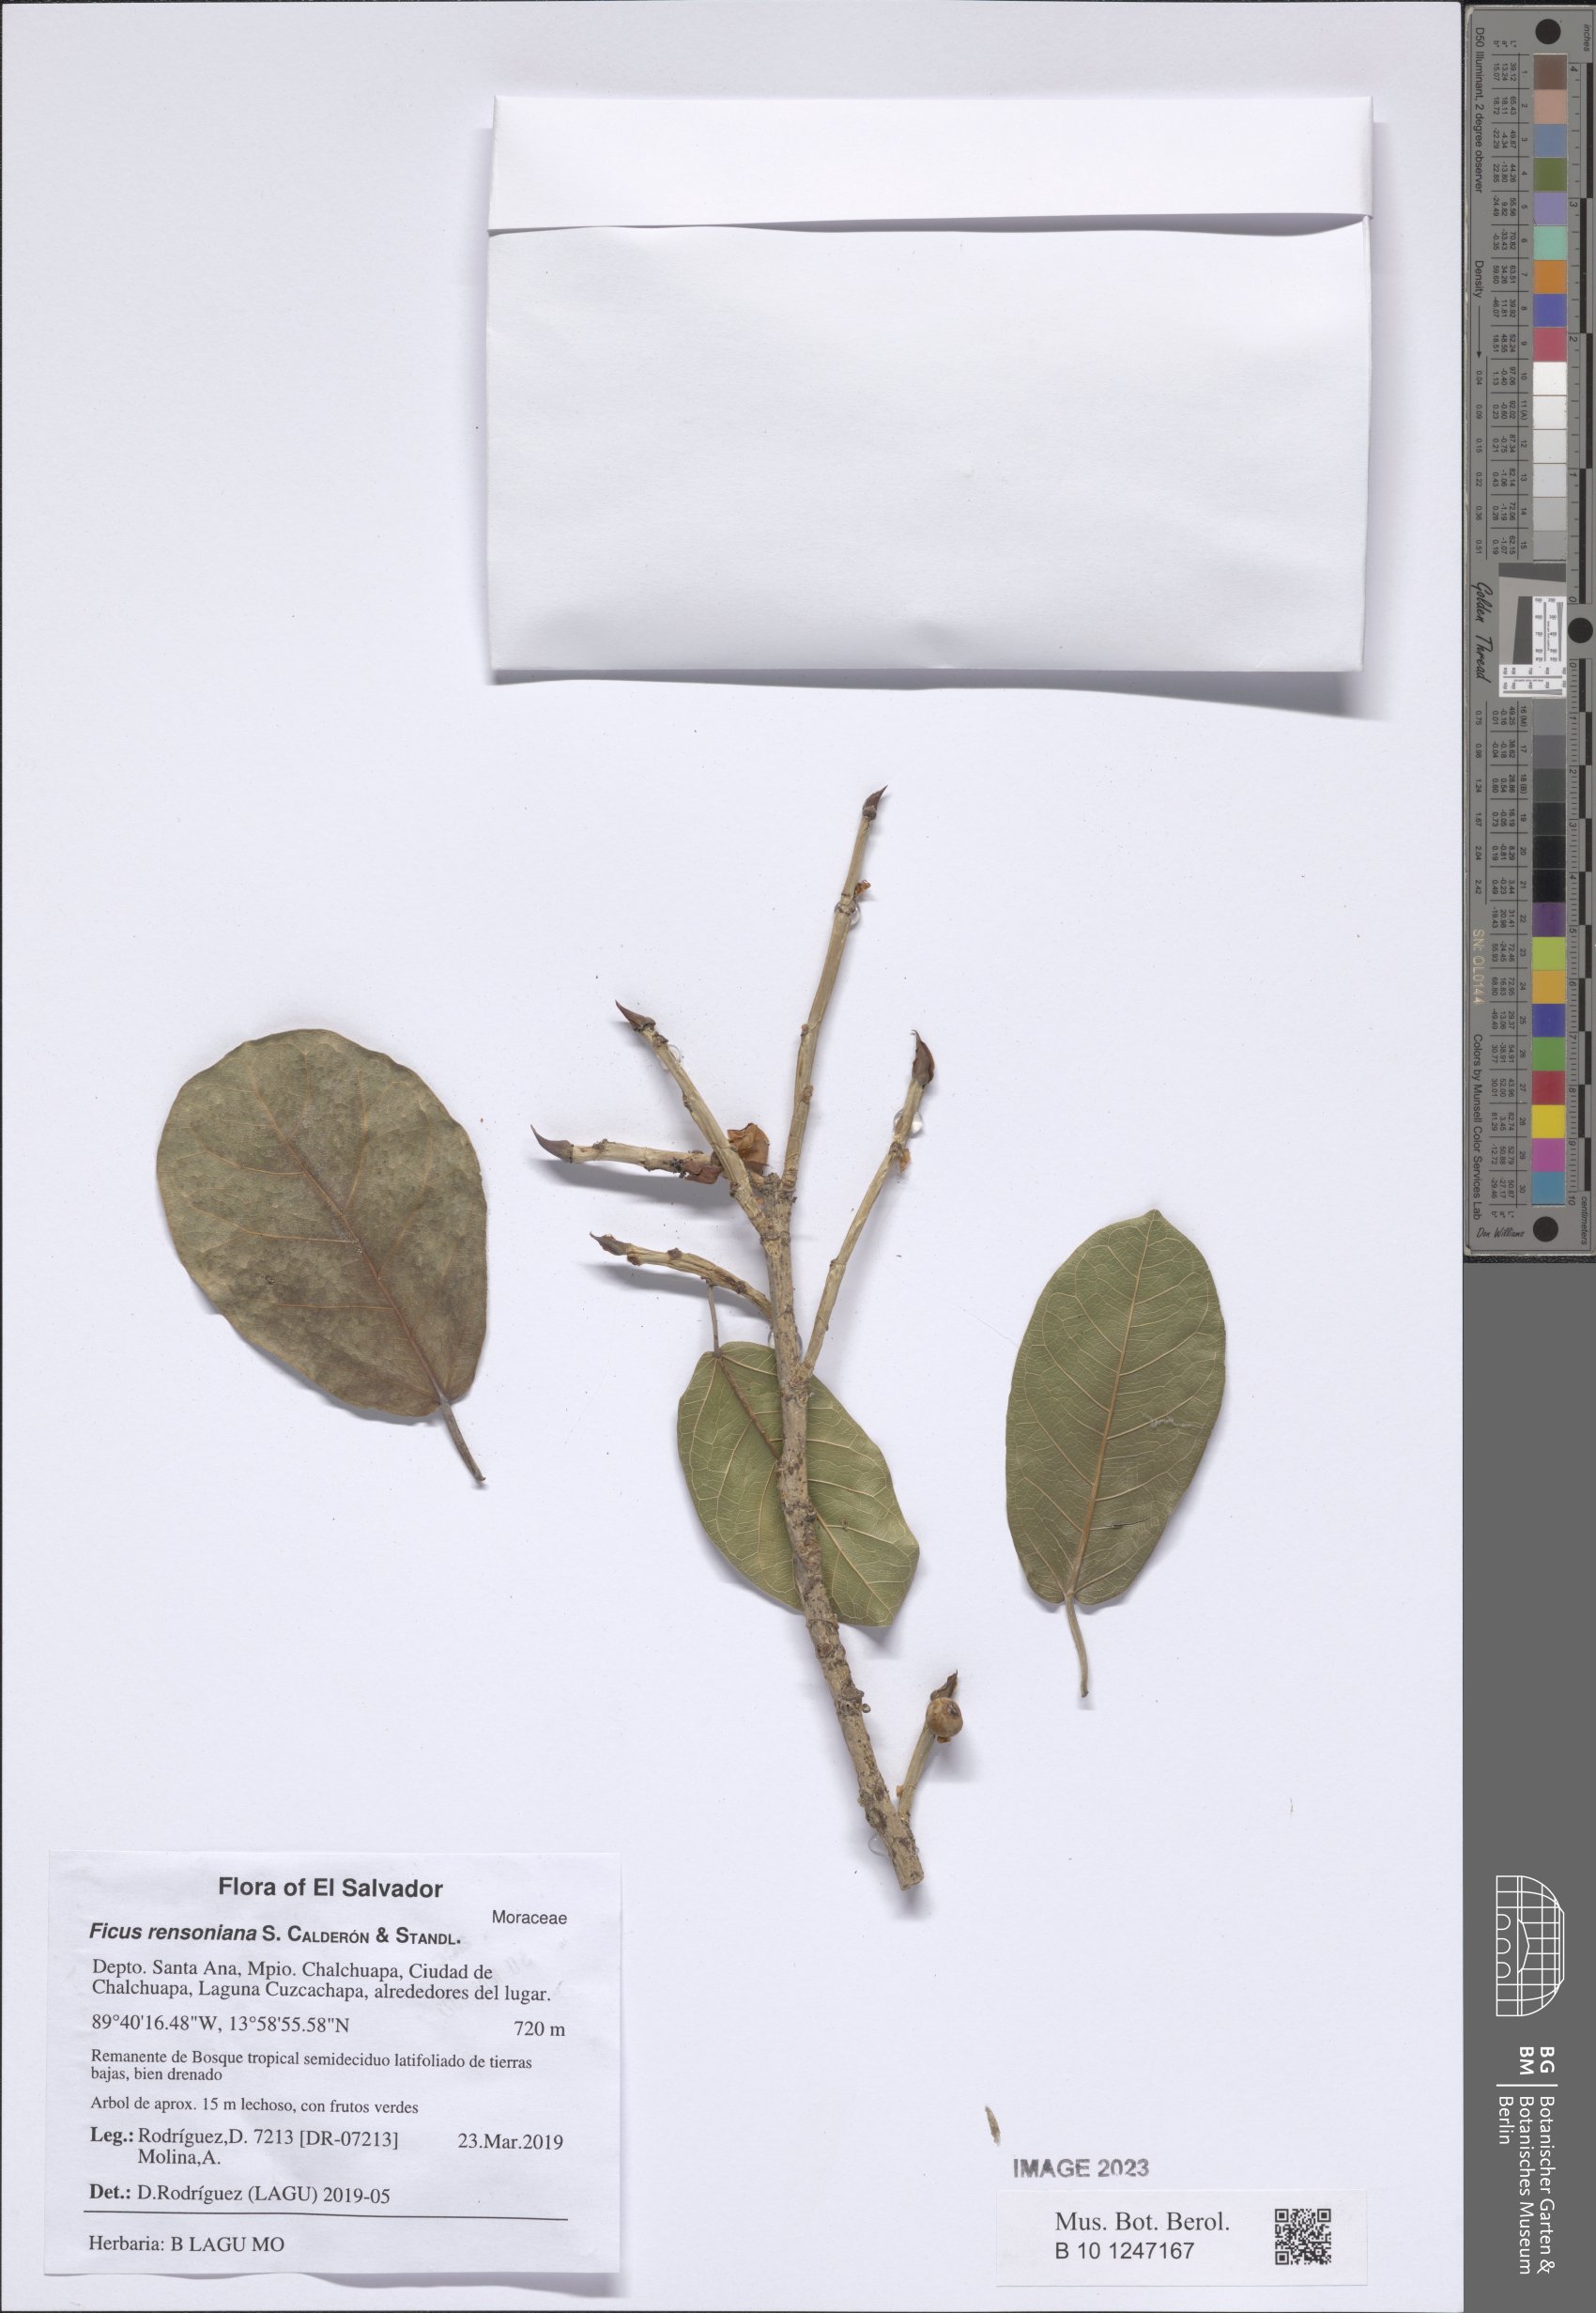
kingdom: Plantae
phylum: Tracheophyta
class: Magnoliopsida
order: Rosales
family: Moraceae
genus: Ficus
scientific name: Ficus rensoniana
